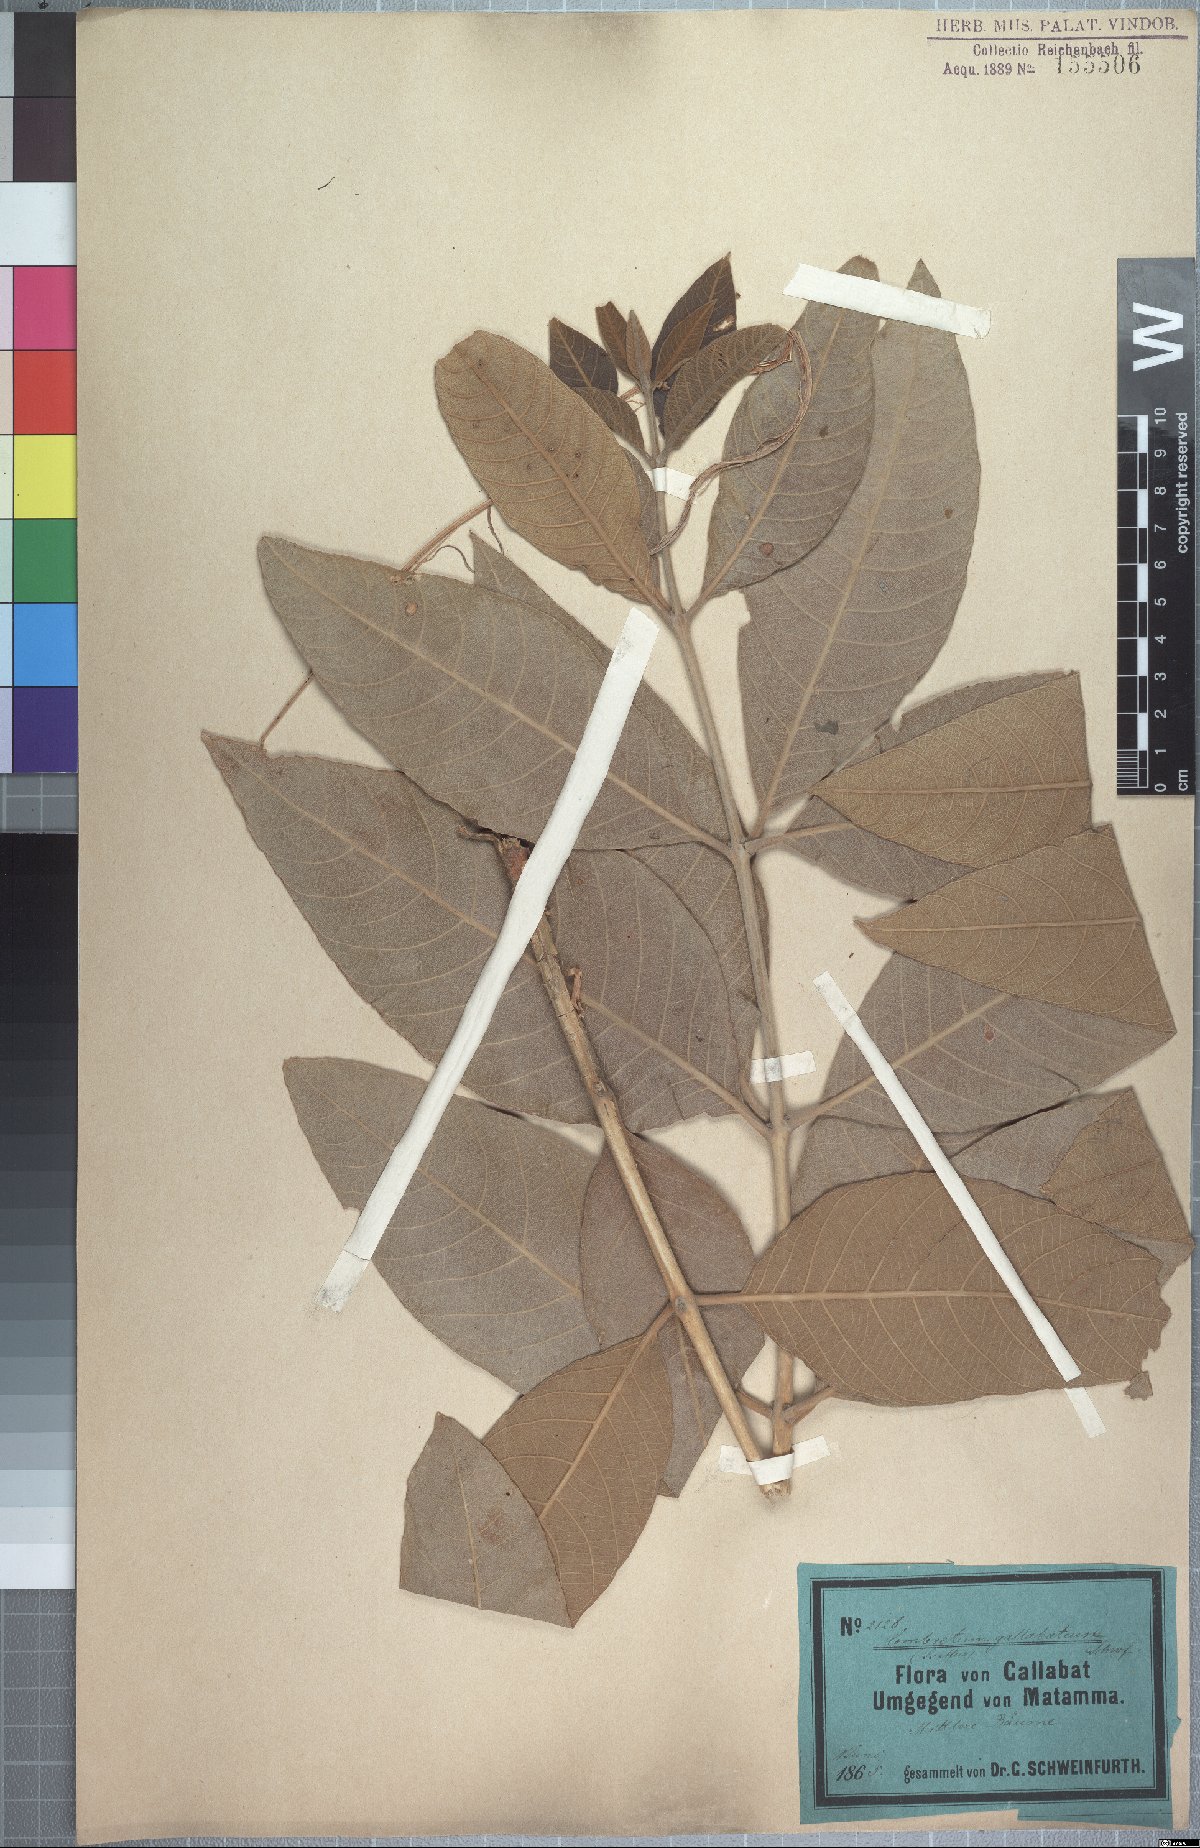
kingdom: Plantae
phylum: Tracheophyta
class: Magnoliopsida
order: Myrtales
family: Combretaceae
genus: Combretum
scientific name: Combretum rochetianum
